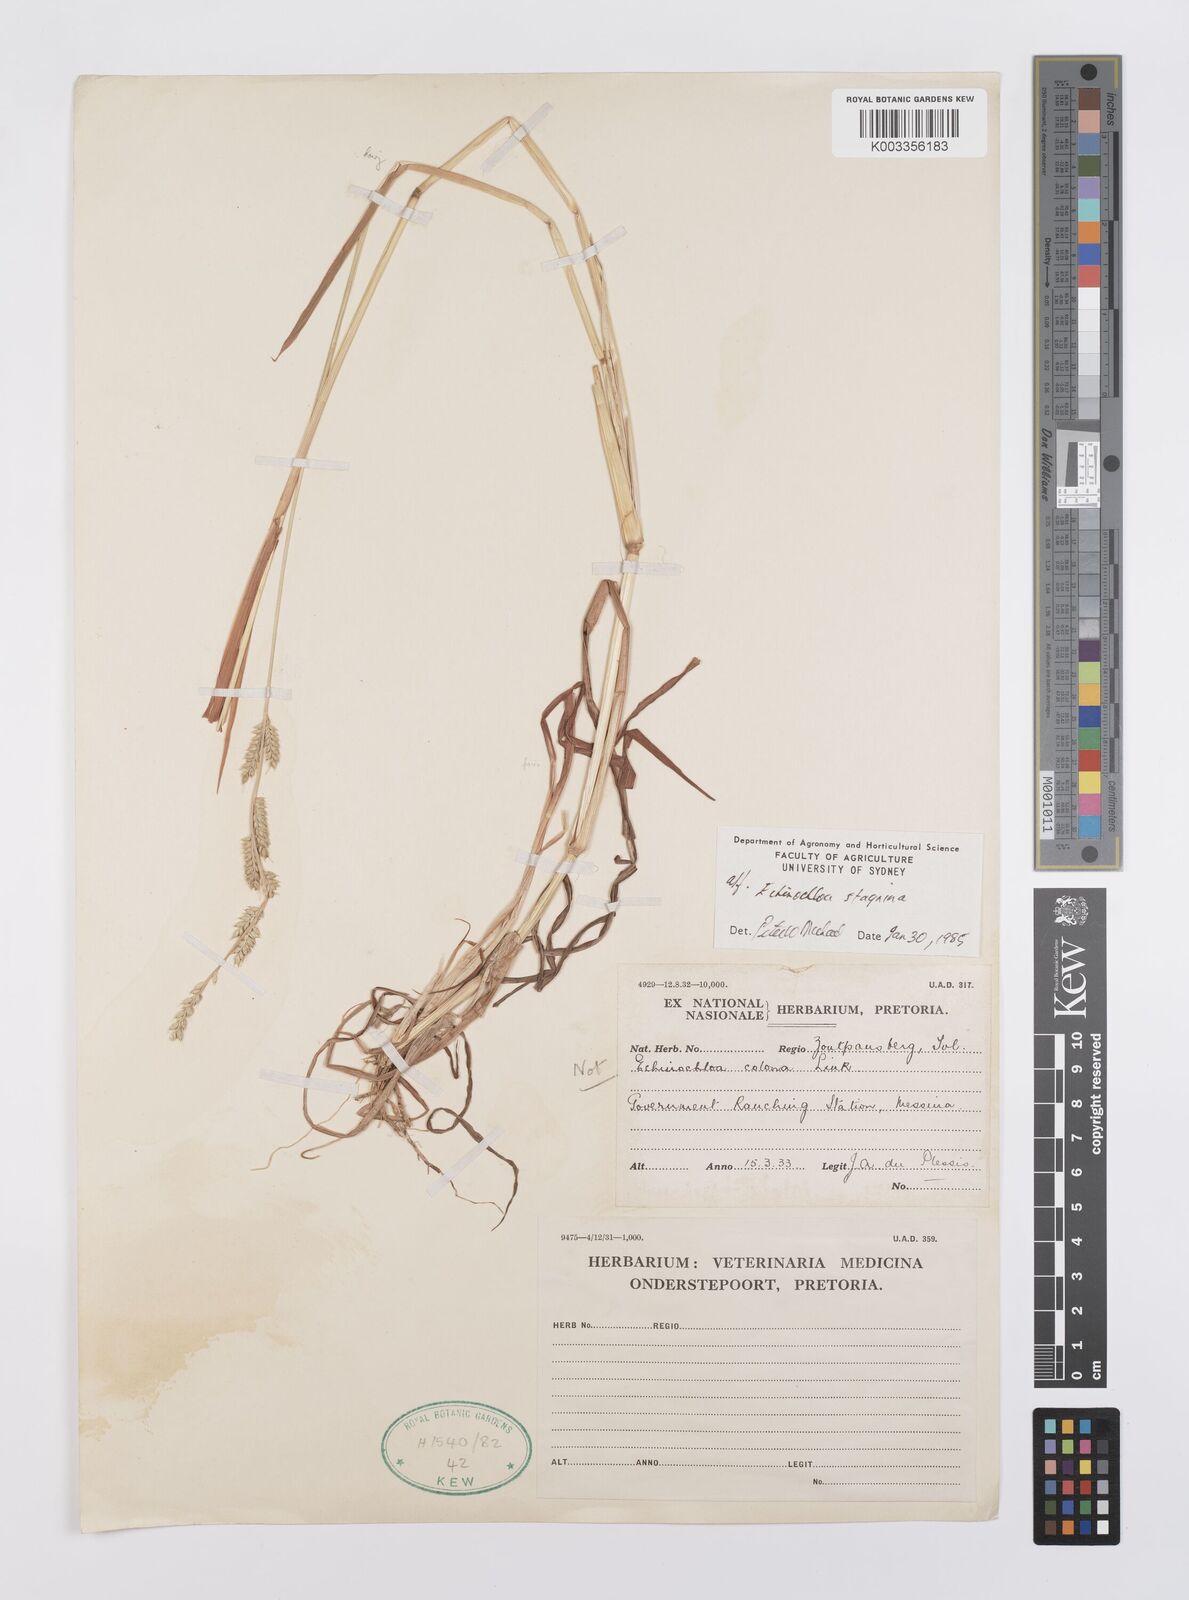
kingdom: Plantae
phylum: Tracheophyta
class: Liliopsida
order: Poales
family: Poaceae
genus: Echinochloa
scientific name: Echinochloa ugandensis
